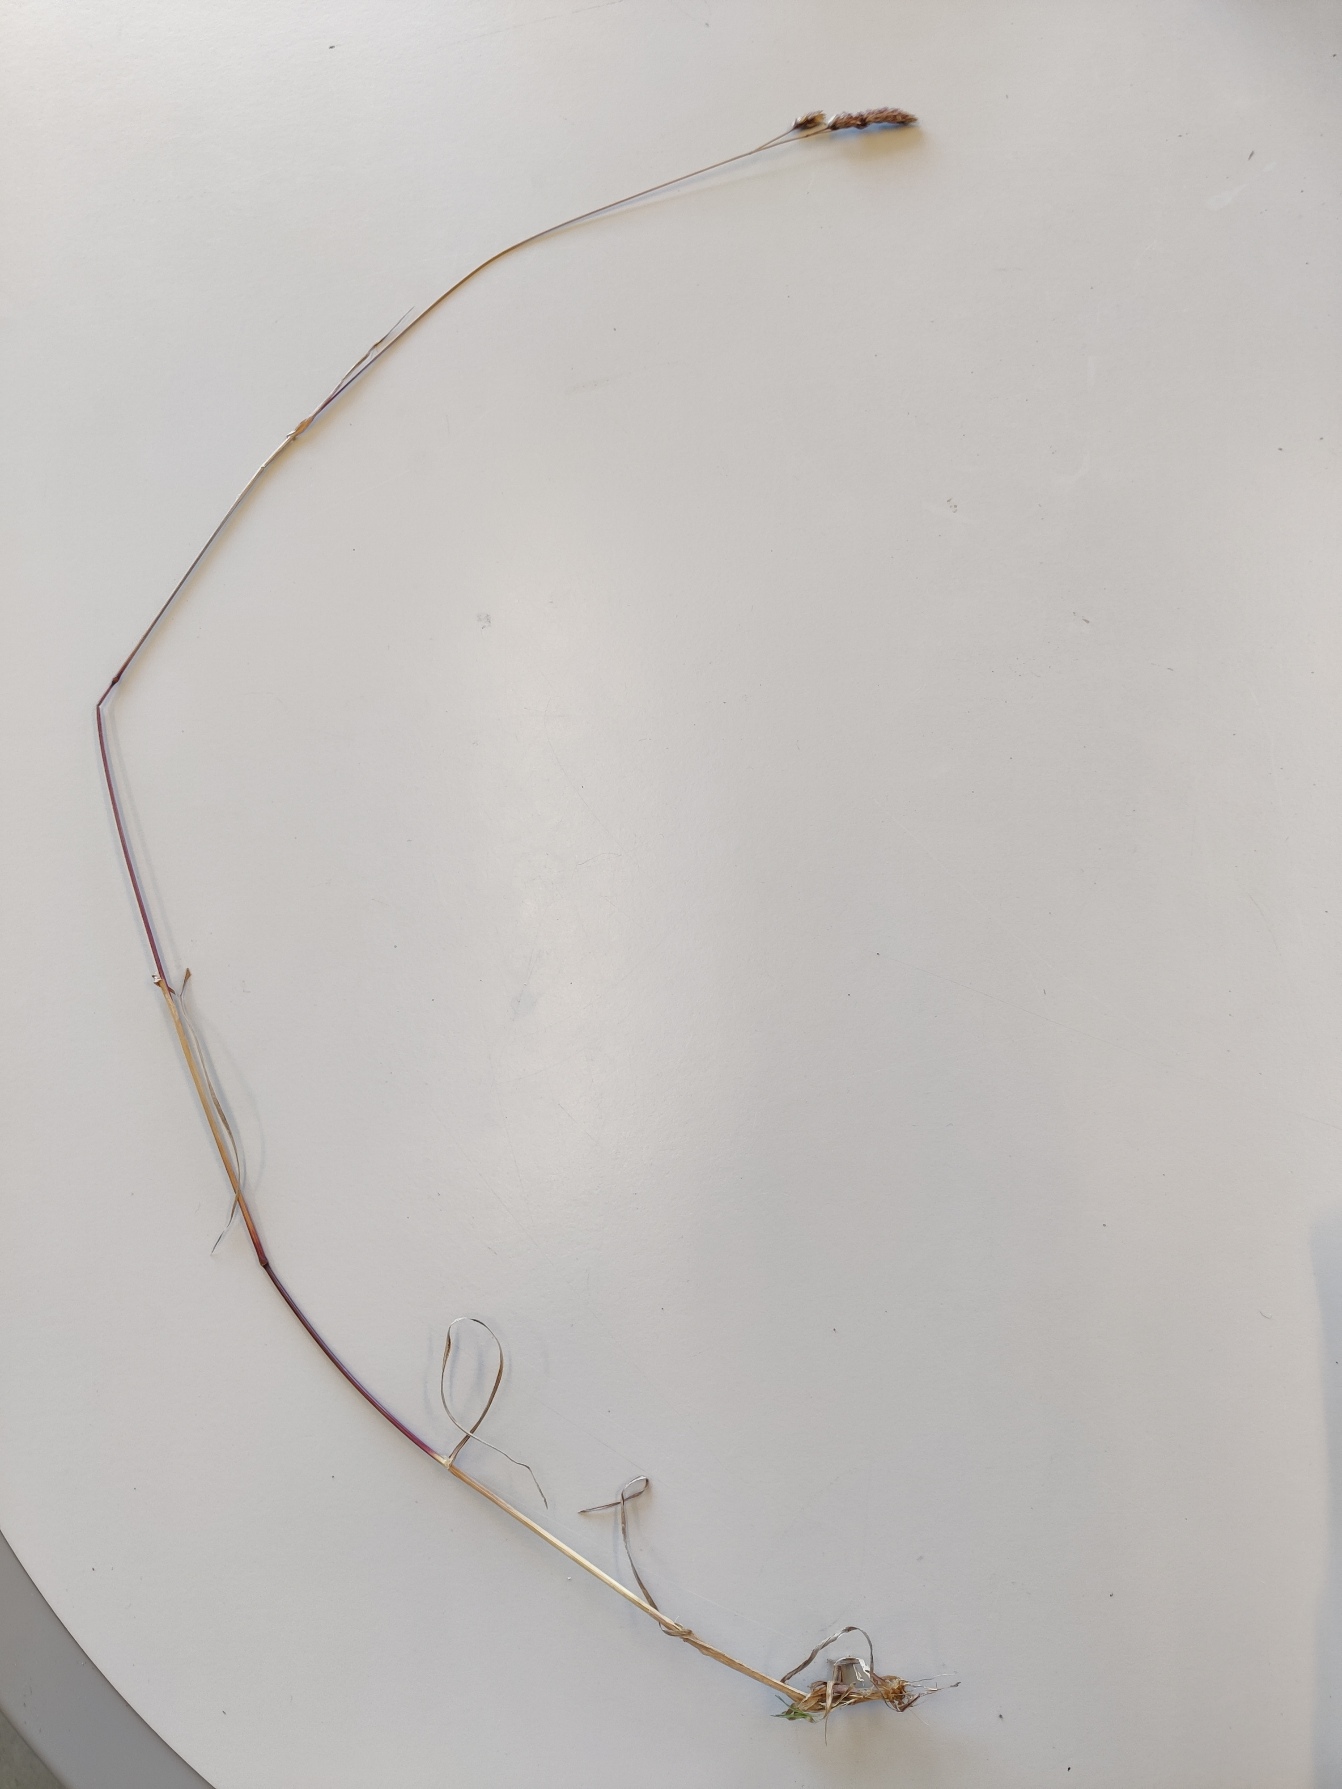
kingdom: Plantae
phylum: Tracheophyta
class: Liliopsida
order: Poales
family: Poaceae
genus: Dactylis
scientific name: Dactylis glomerata
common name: Almindelig hundegræs
